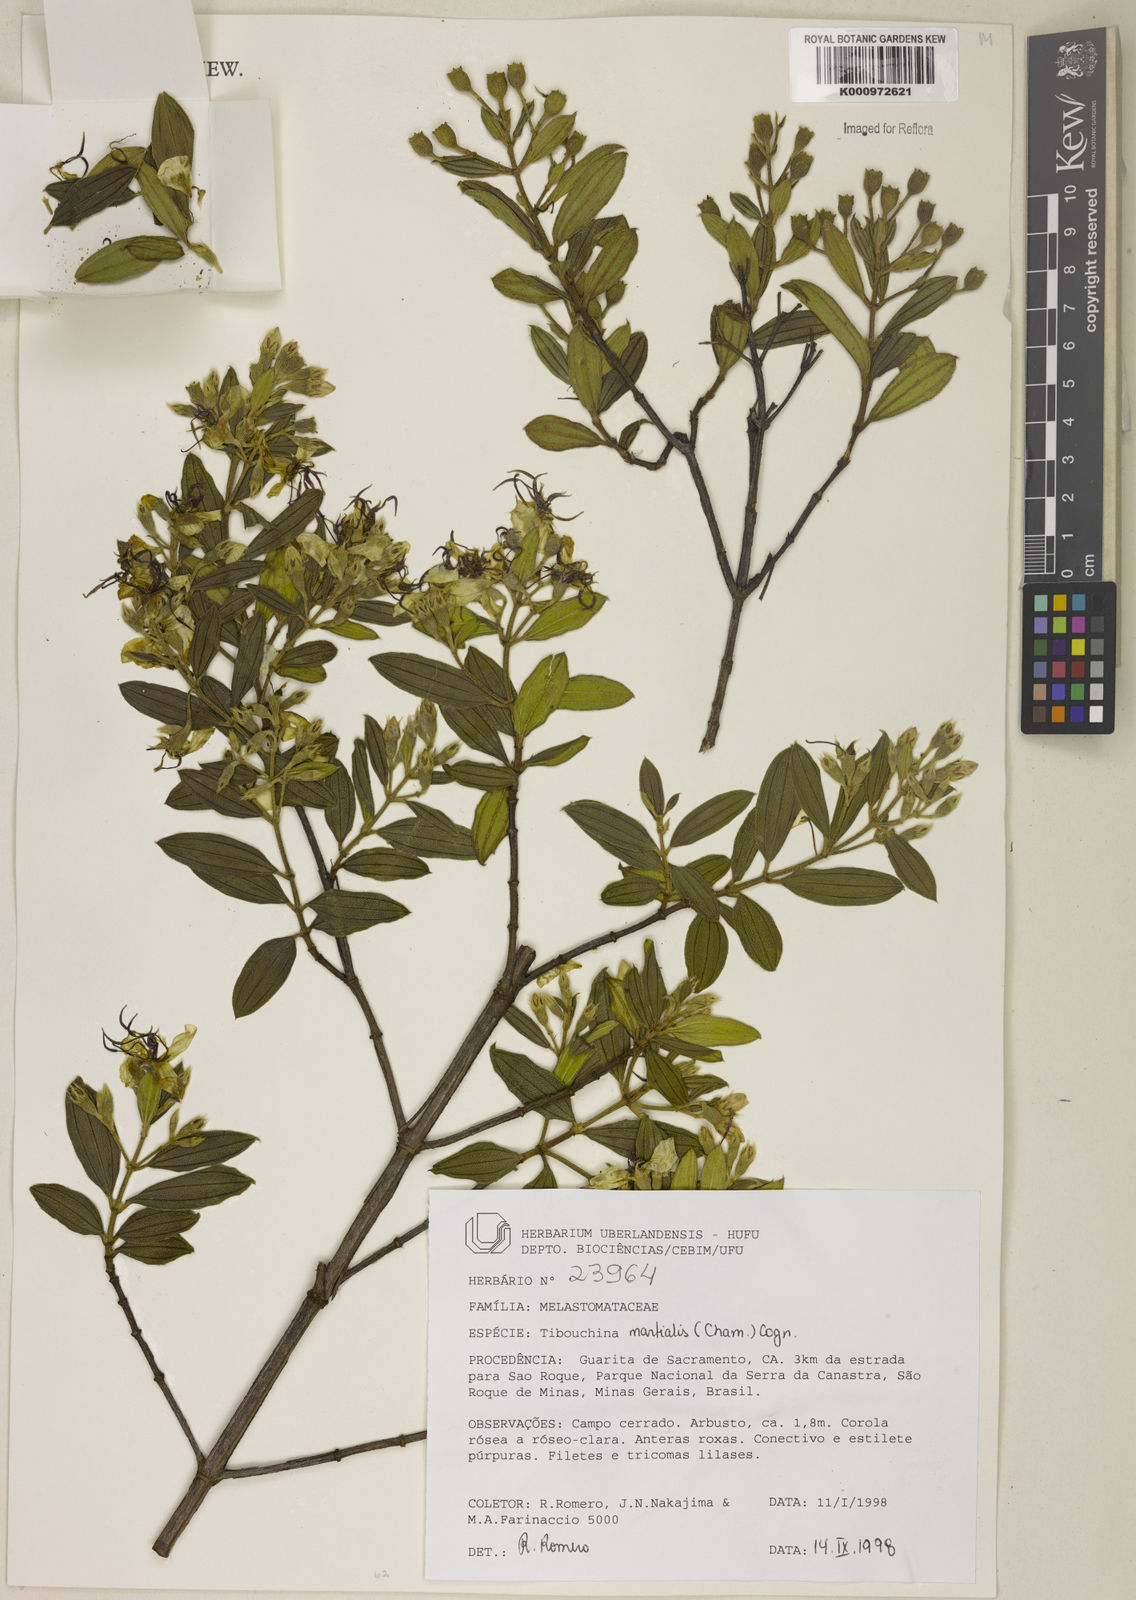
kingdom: Plantae
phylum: Tracheophyta
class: Magnoliopsida
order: Myrtales
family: Melastomataceae
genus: Pleroma
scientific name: Pleroma martiale
